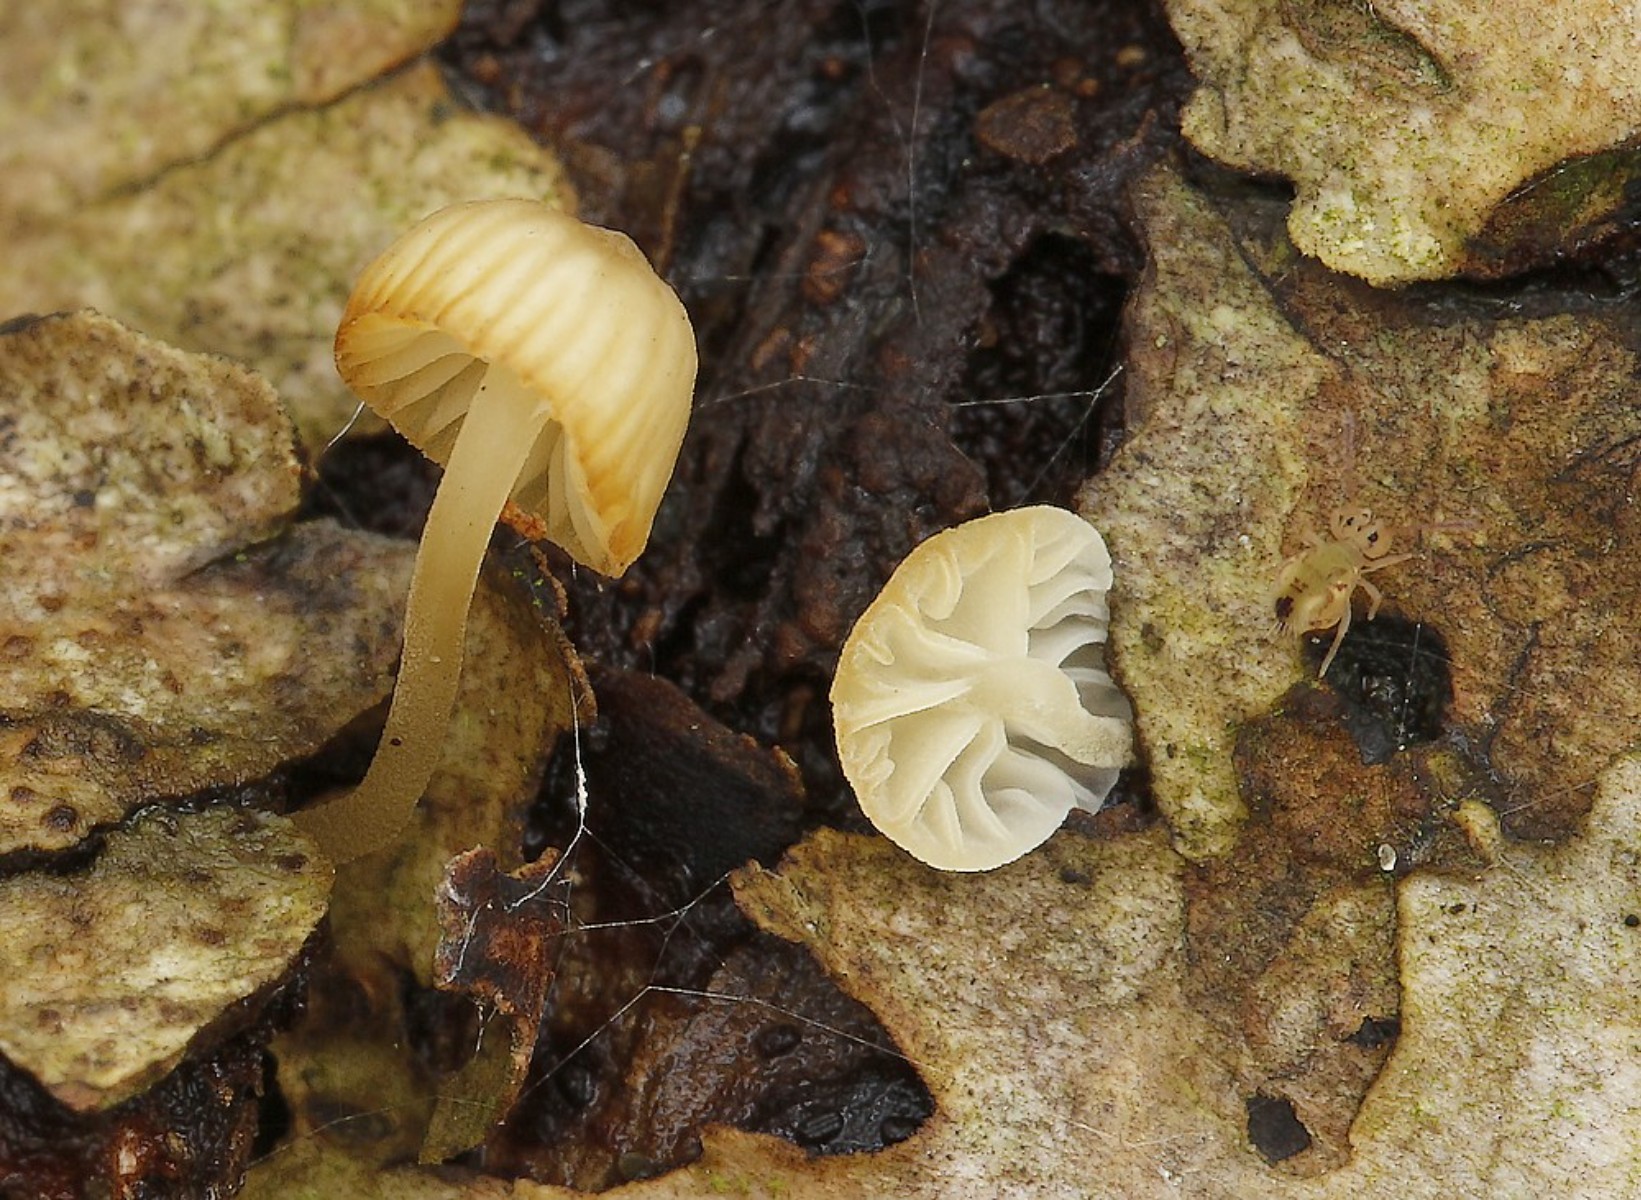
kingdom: Fungi
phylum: Basidiomycota
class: Agaricomycetes
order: Agaricales
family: Porotheleaceae
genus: Phloeomana
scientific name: Phloeomana speirea
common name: kvist-huesvamp
